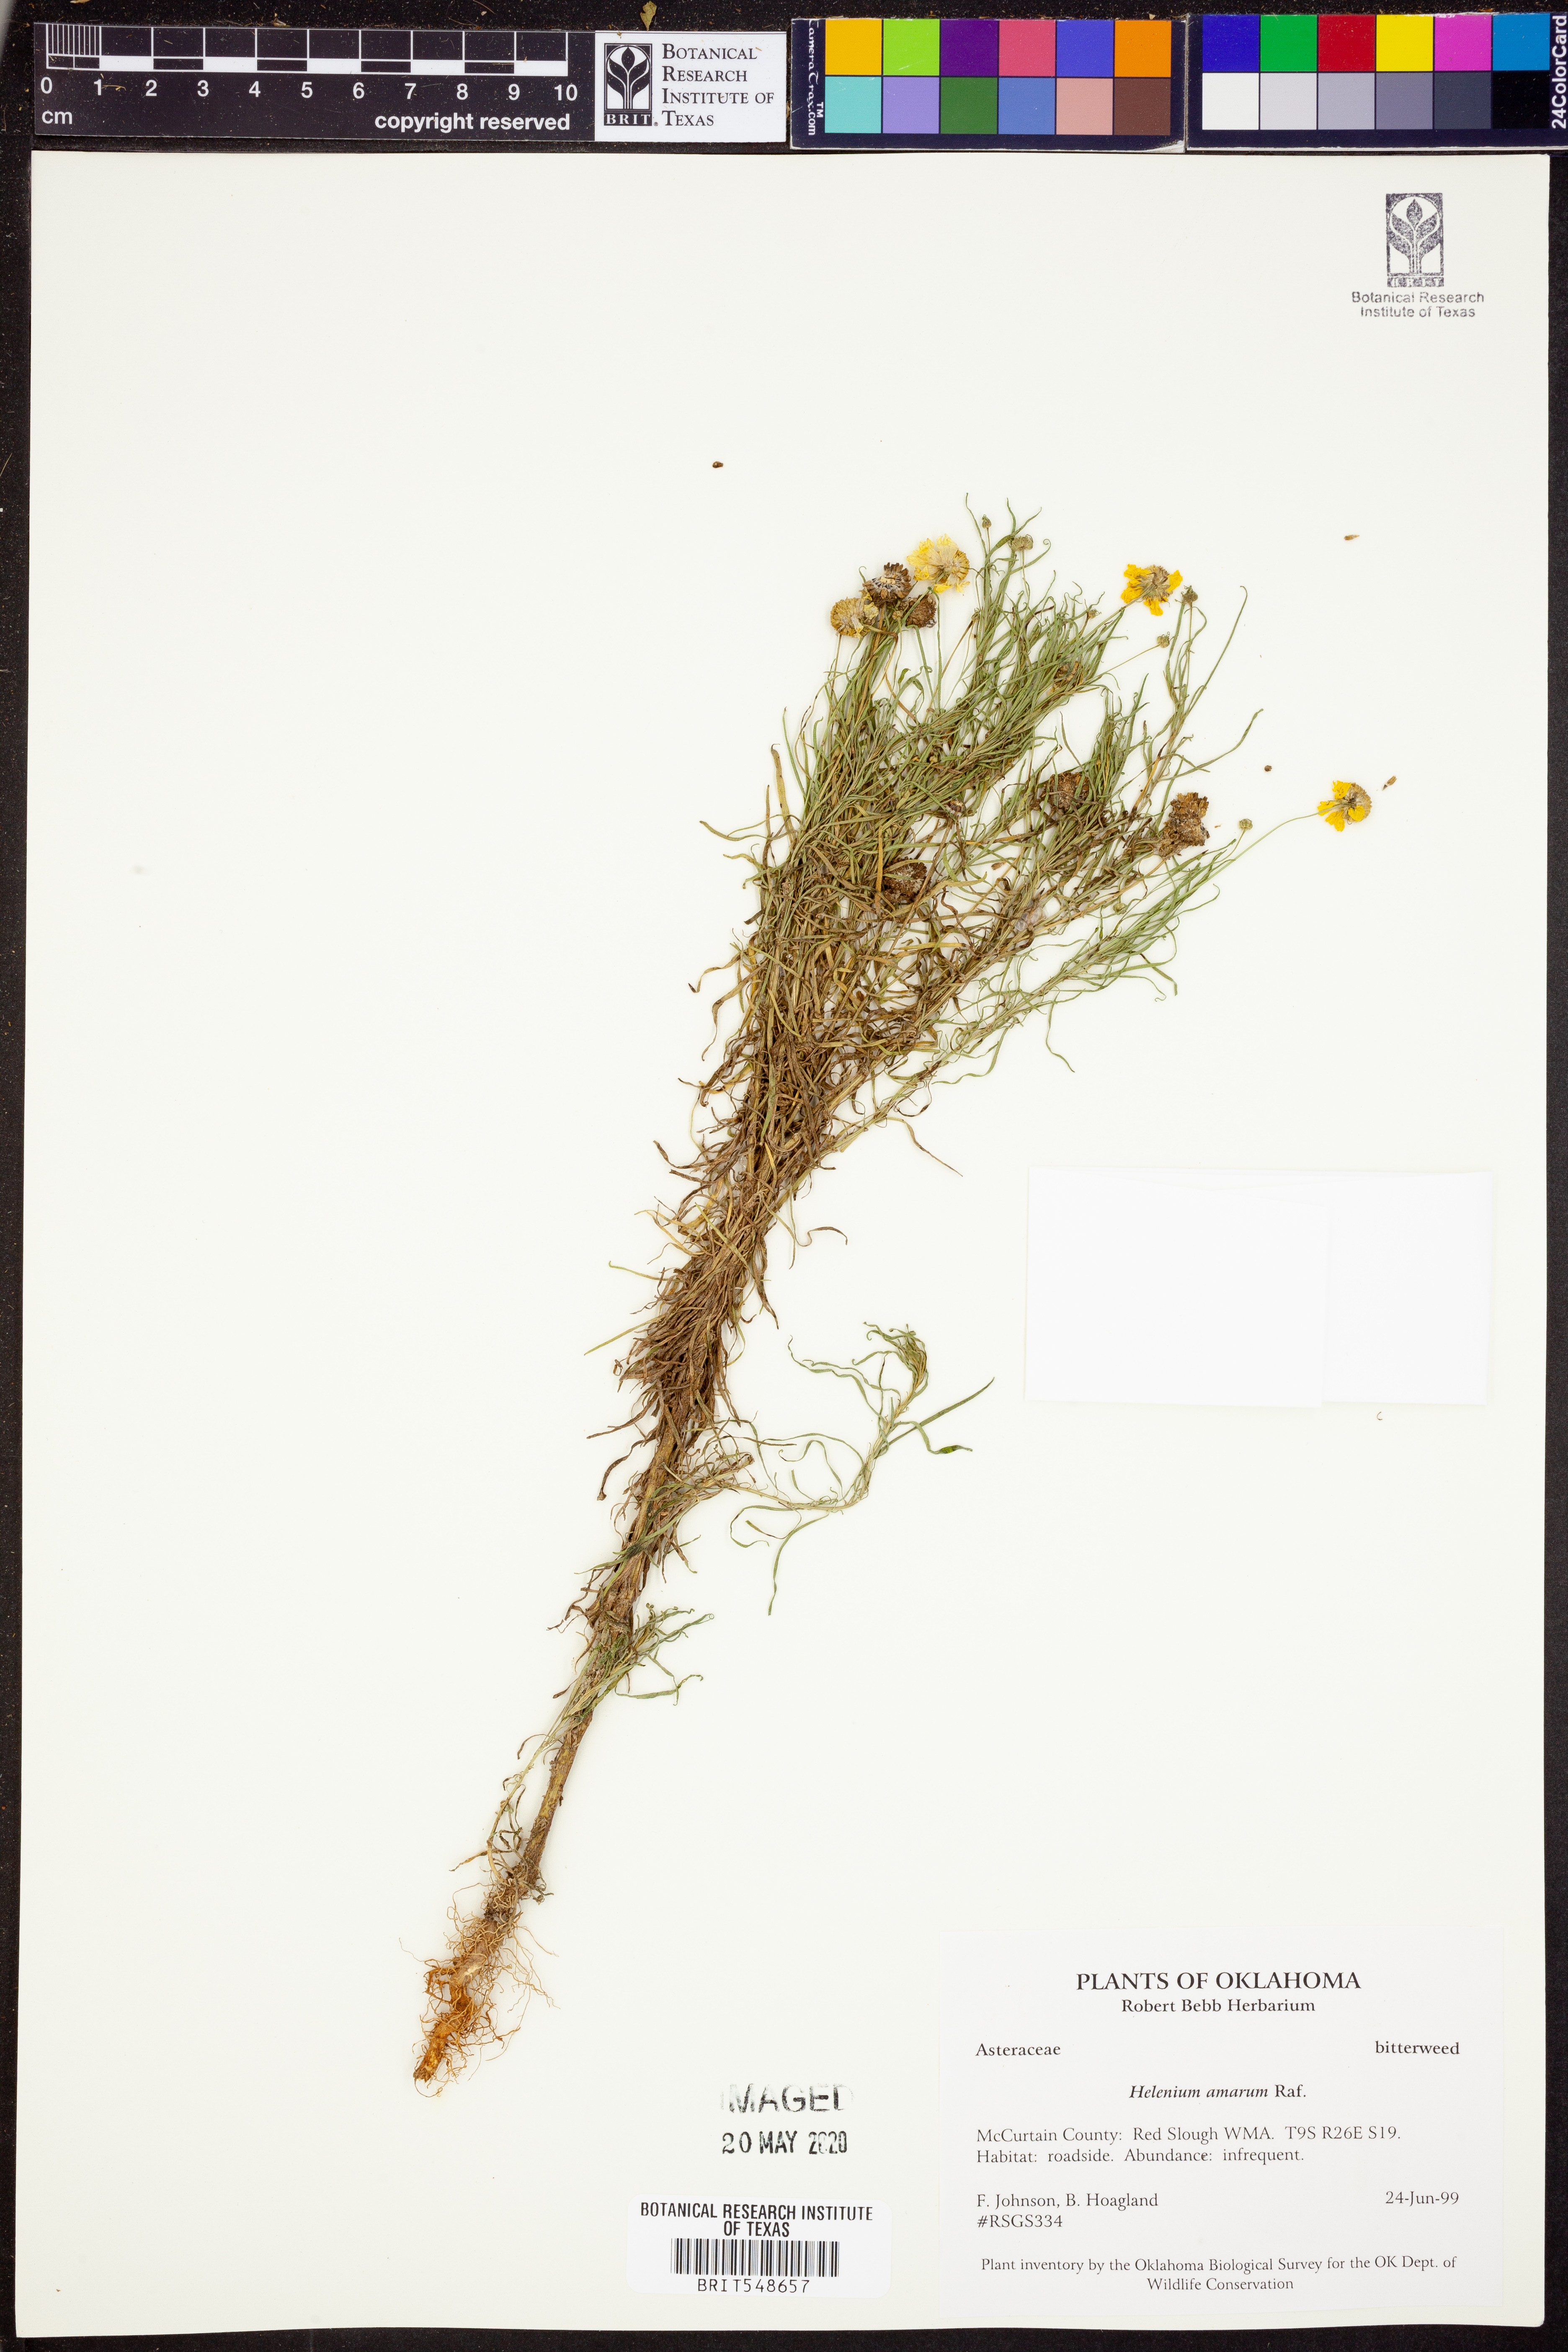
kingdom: Plantae
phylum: Tracheophyta
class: Magnoliopsida
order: Asterales
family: Asteraceae
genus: Helenium
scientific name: Helenium amarum
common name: Bitter sneezeweed
